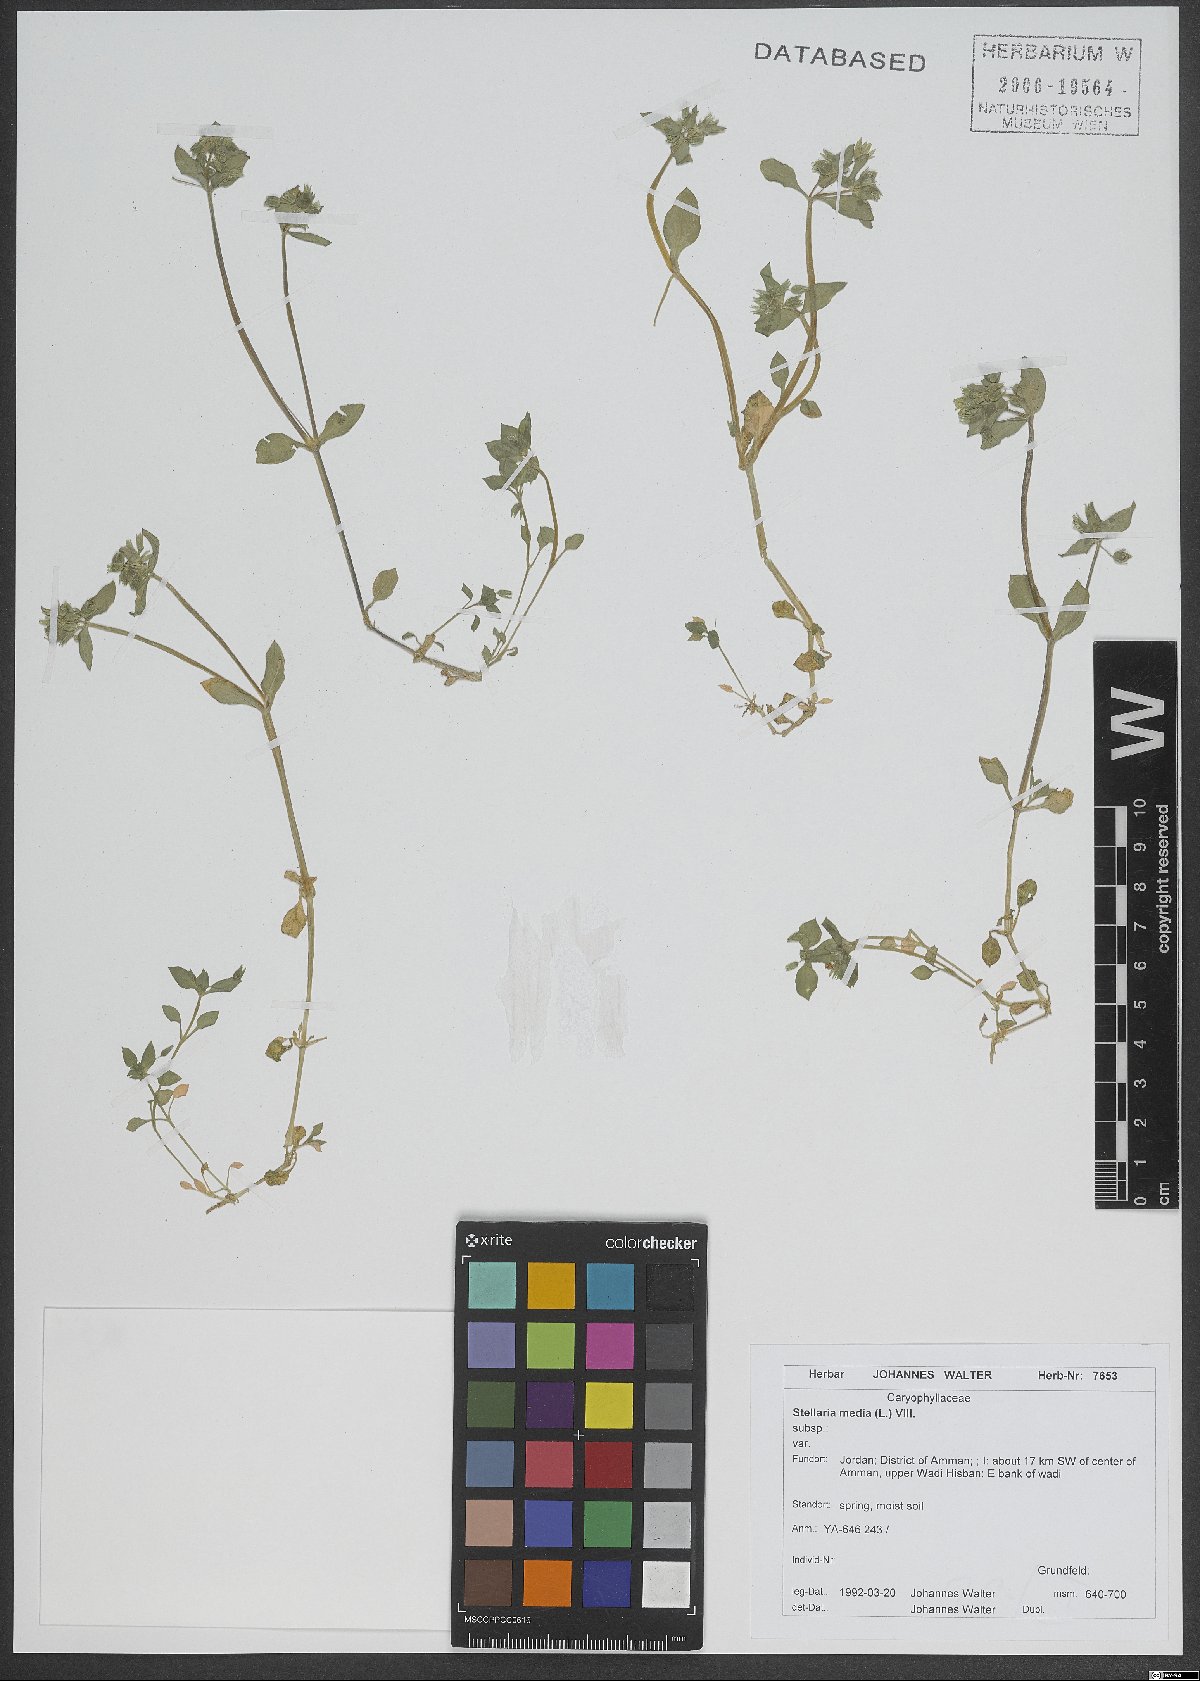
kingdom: Plantae
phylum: Tracheophyta
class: Magnoliopsida
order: Caryophyllales
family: Caryophyllaceae
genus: Stellaria
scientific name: Stellaria apetala
